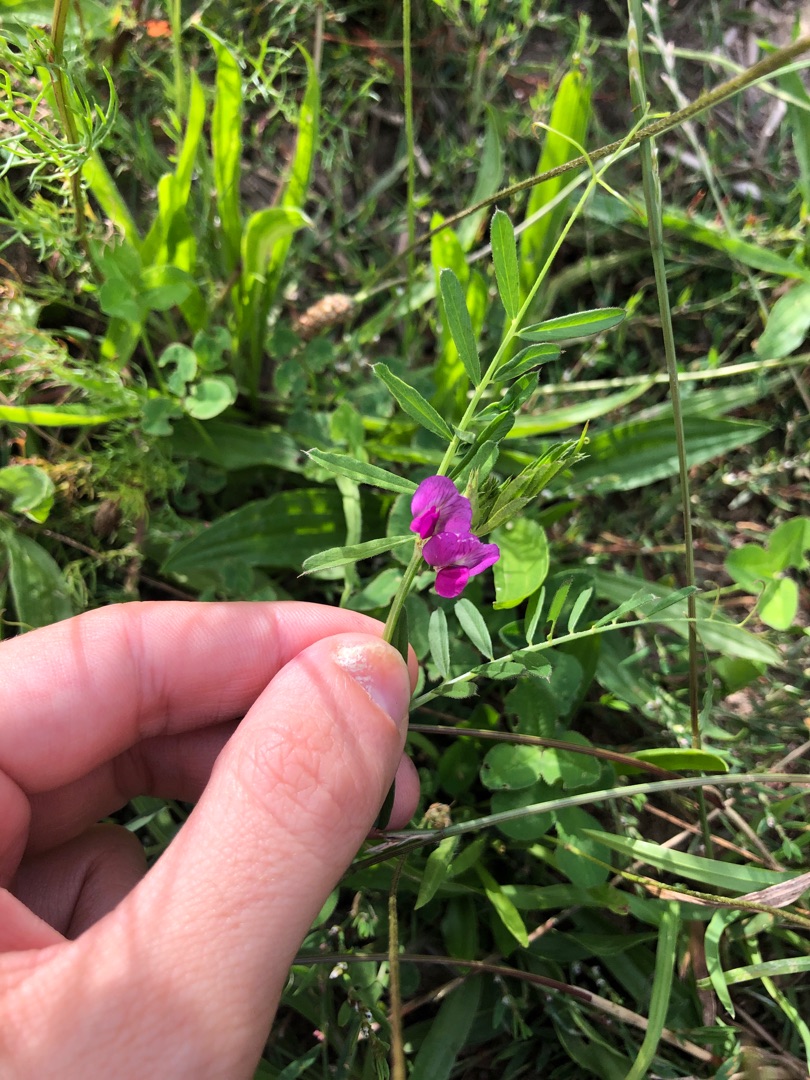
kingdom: Plantae
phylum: Tracheophyta
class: Magnoliopsida
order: Fabales
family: Fabaceae
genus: Vicia
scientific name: Vicia sativa
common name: Foder-vikke
